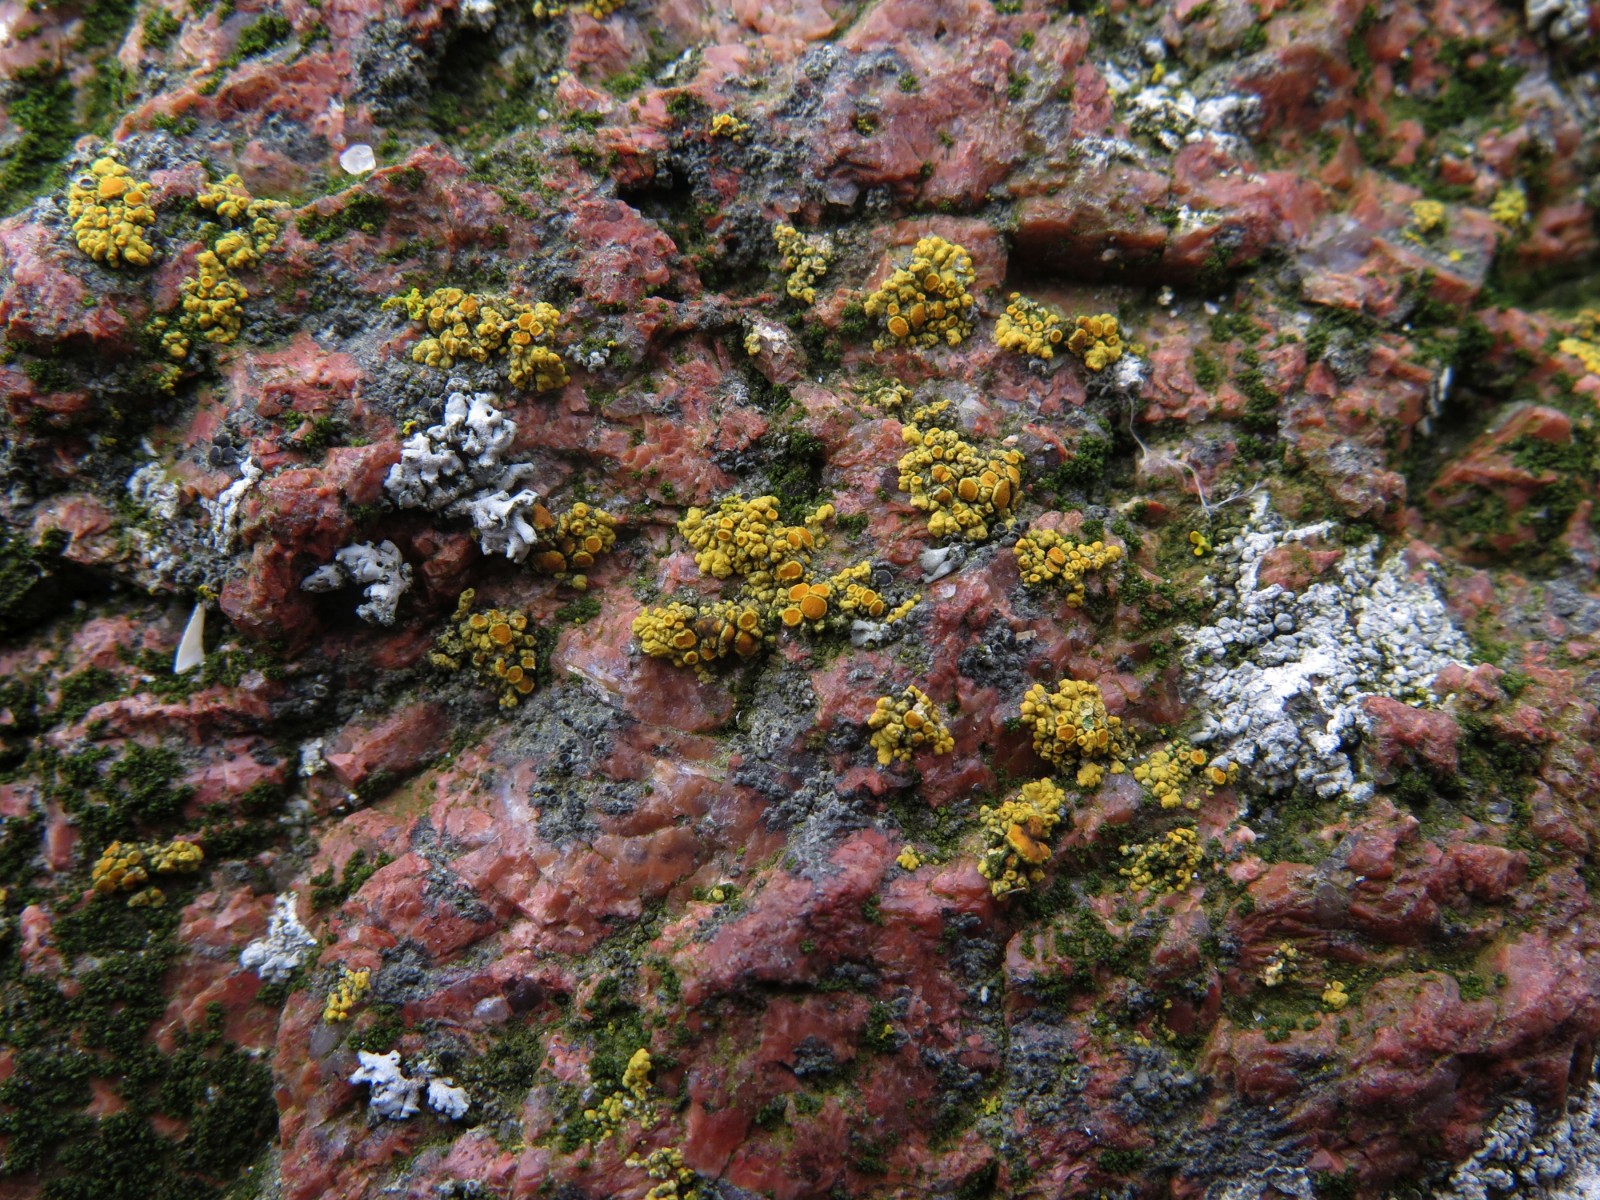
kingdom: Fungi
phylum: Ascomycota
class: Lecanoromycetes
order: Teloschistales
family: Teloschistaceae
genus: Athallia
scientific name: Athallia scopularis
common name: klippe-orangelav
